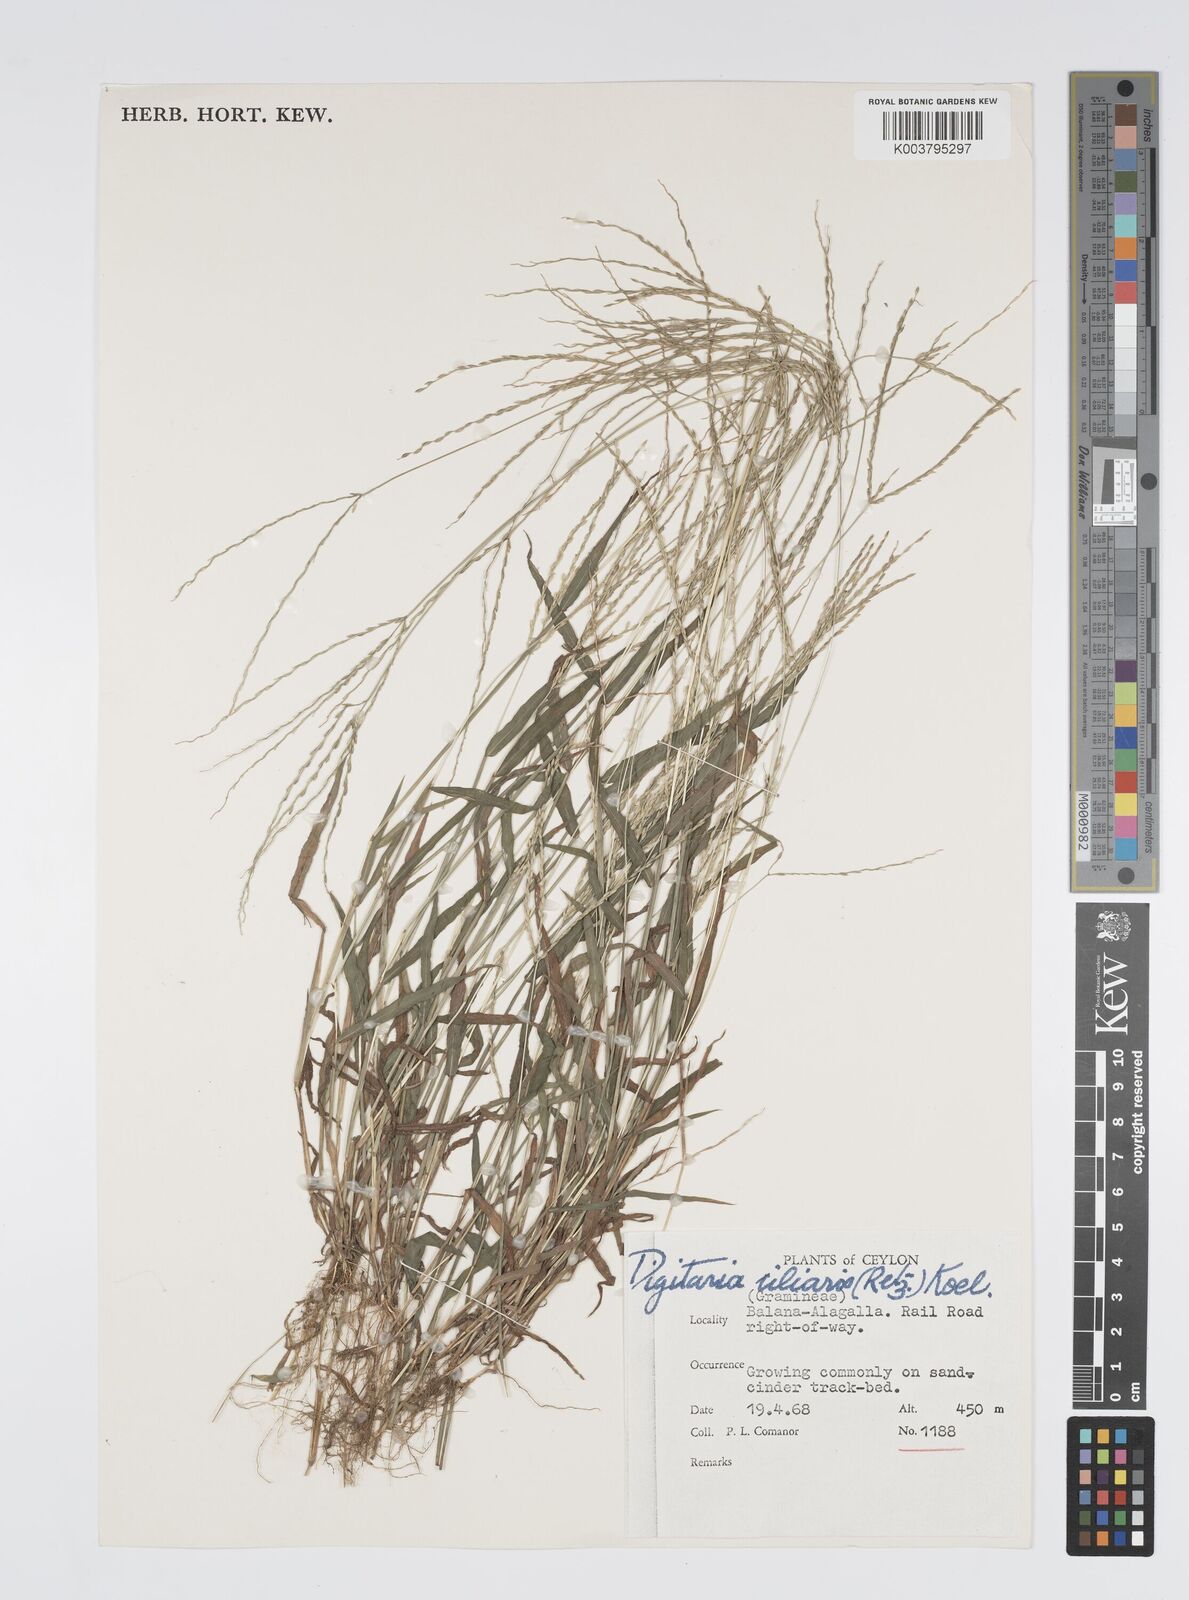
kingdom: Plantae
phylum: Tracheophyta
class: Liliopsida
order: Poales
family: Poaceae
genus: Digitaria
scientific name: Digitaria ciliaris
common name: Tropical finger-grass
